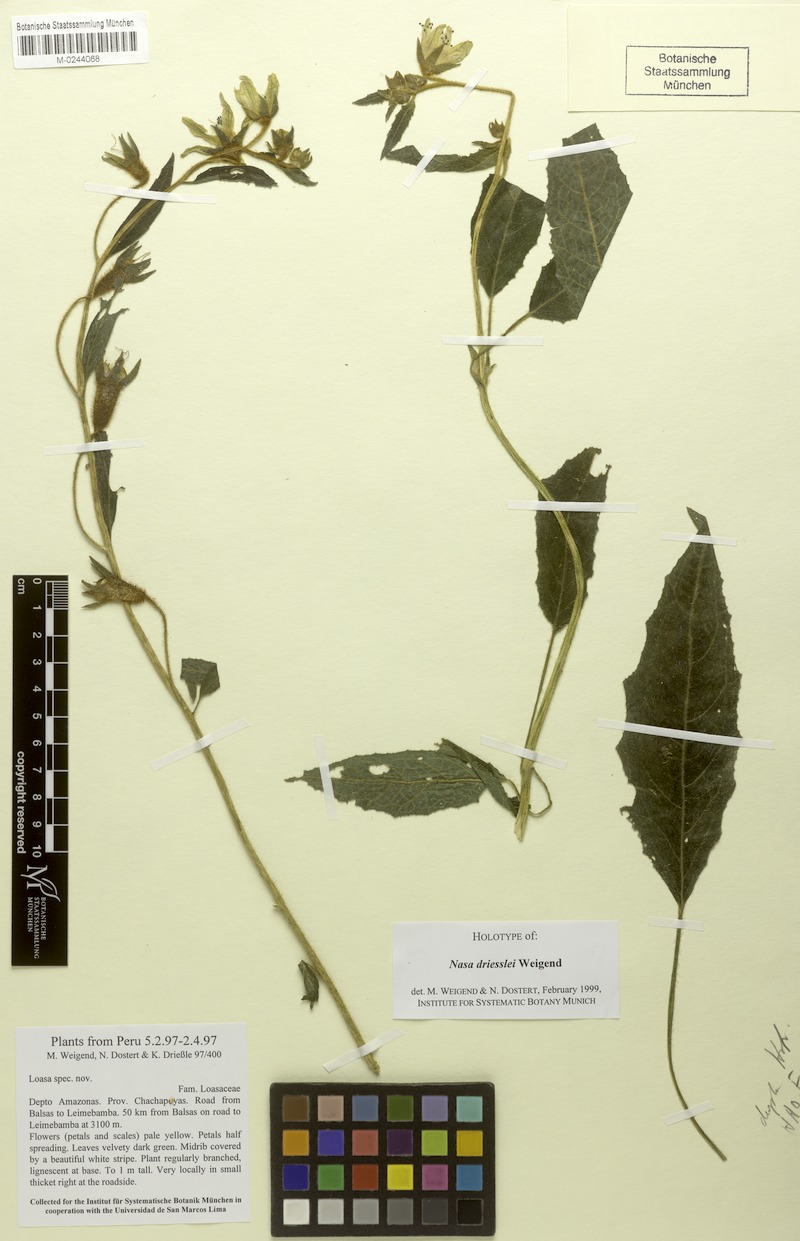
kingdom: Plantae
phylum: Tracheophyta
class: Magnoliopsida
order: Cornales
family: Loasaceae
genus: Nasa
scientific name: Nasa driessleae
